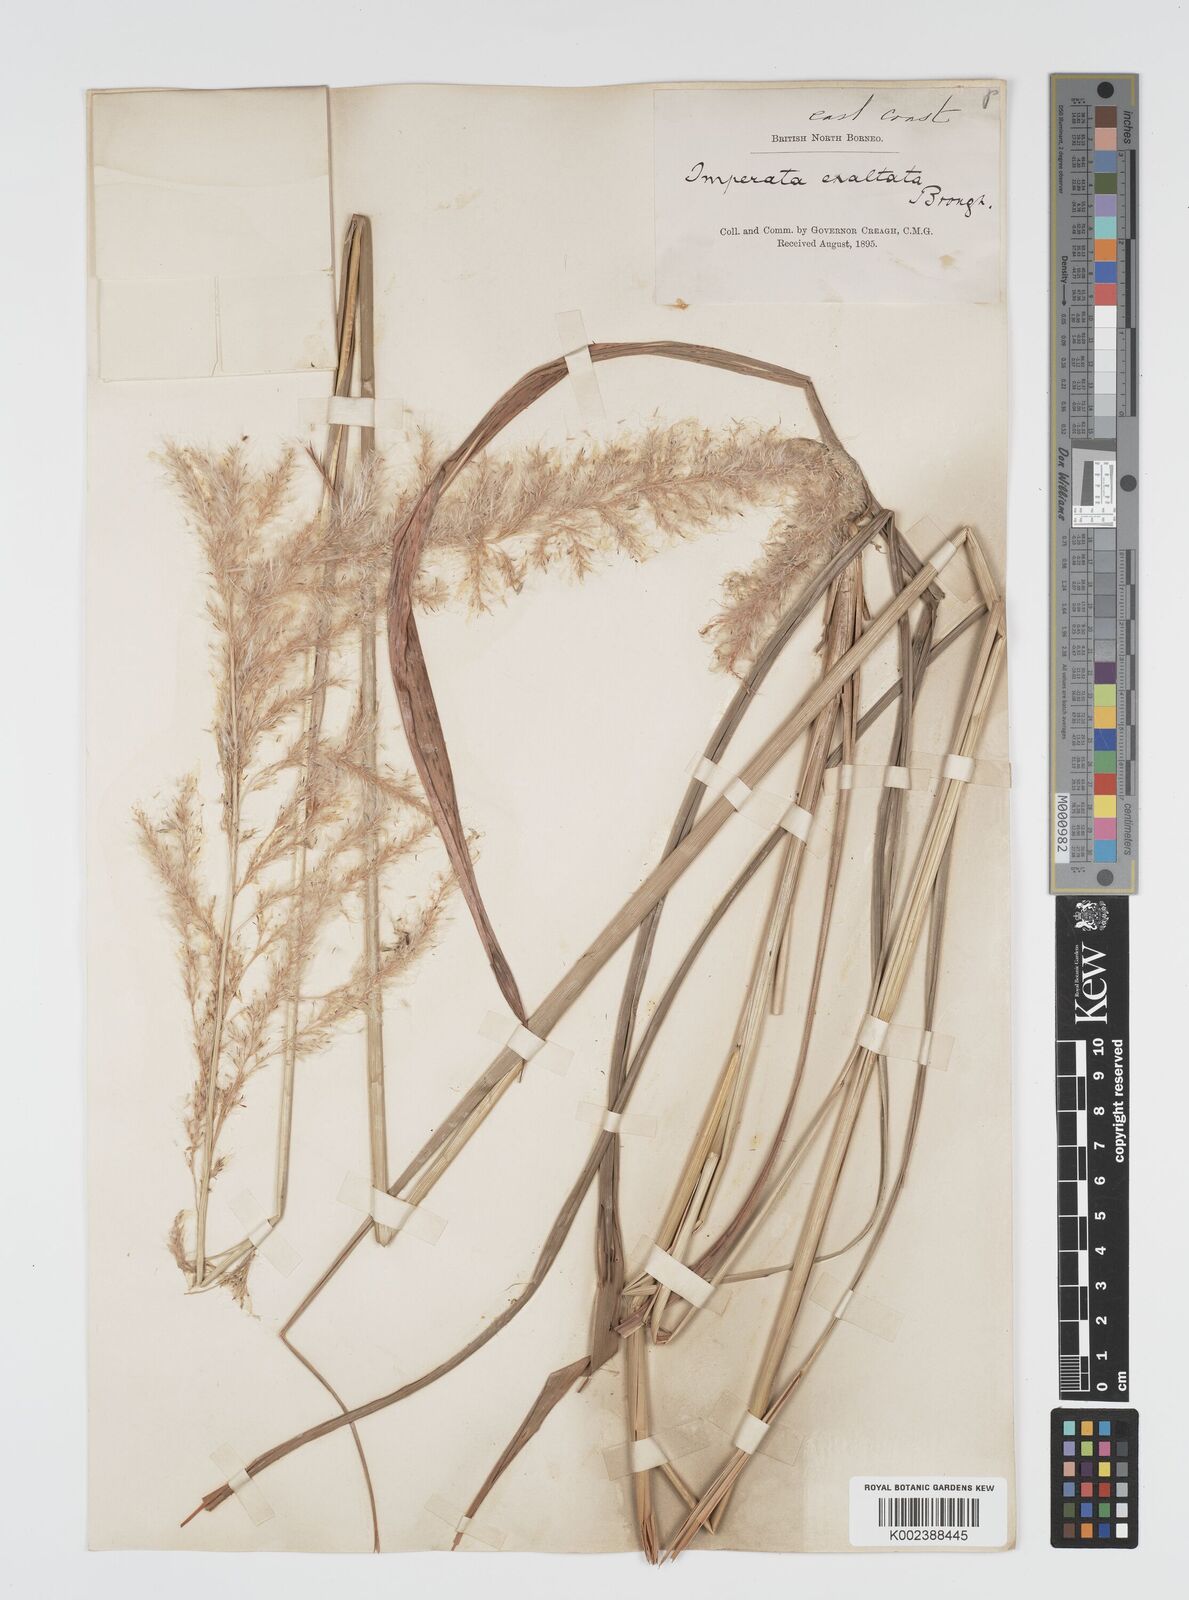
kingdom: Plantae
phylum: Tracheophyta
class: Liliopsida
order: Poales
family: Poaceae
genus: Imperata
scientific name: Imperata conferta
